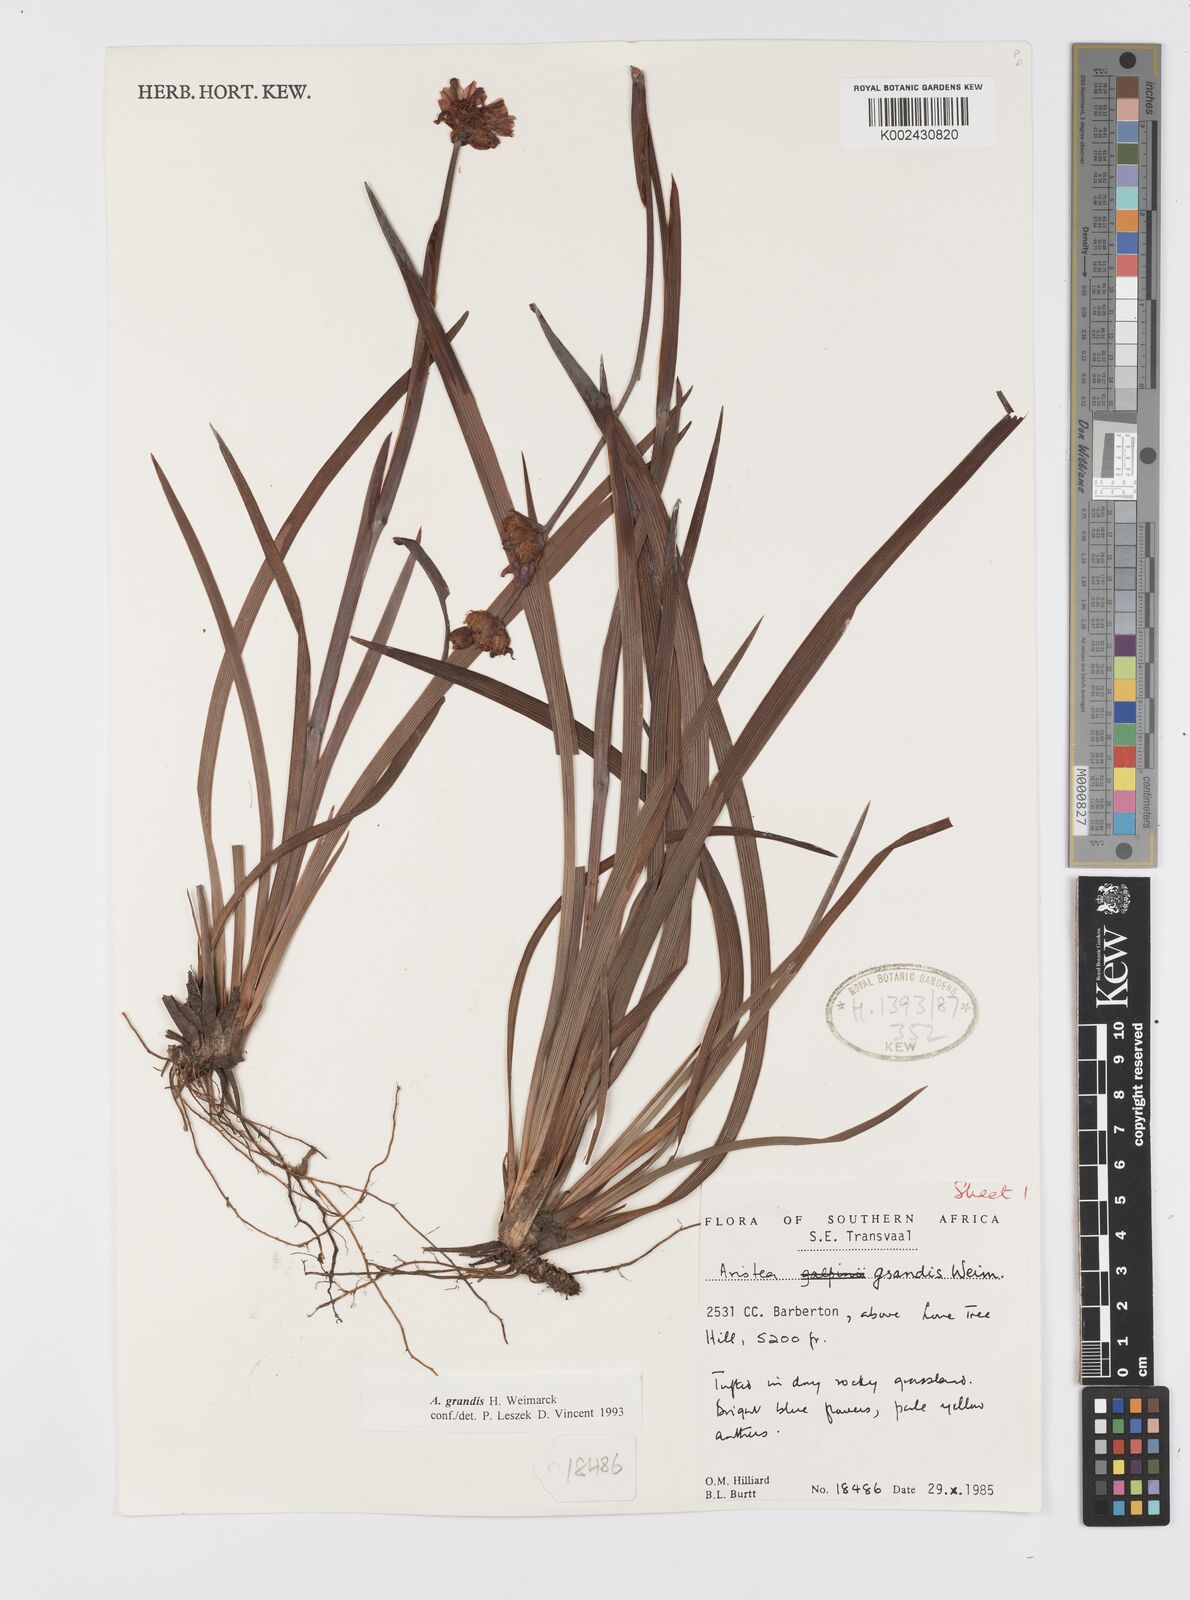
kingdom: Plantae
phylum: Tracheophyta
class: Liliopsida
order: Asparagales
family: Iridaceae
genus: Aristea
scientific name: Aristea grandis
